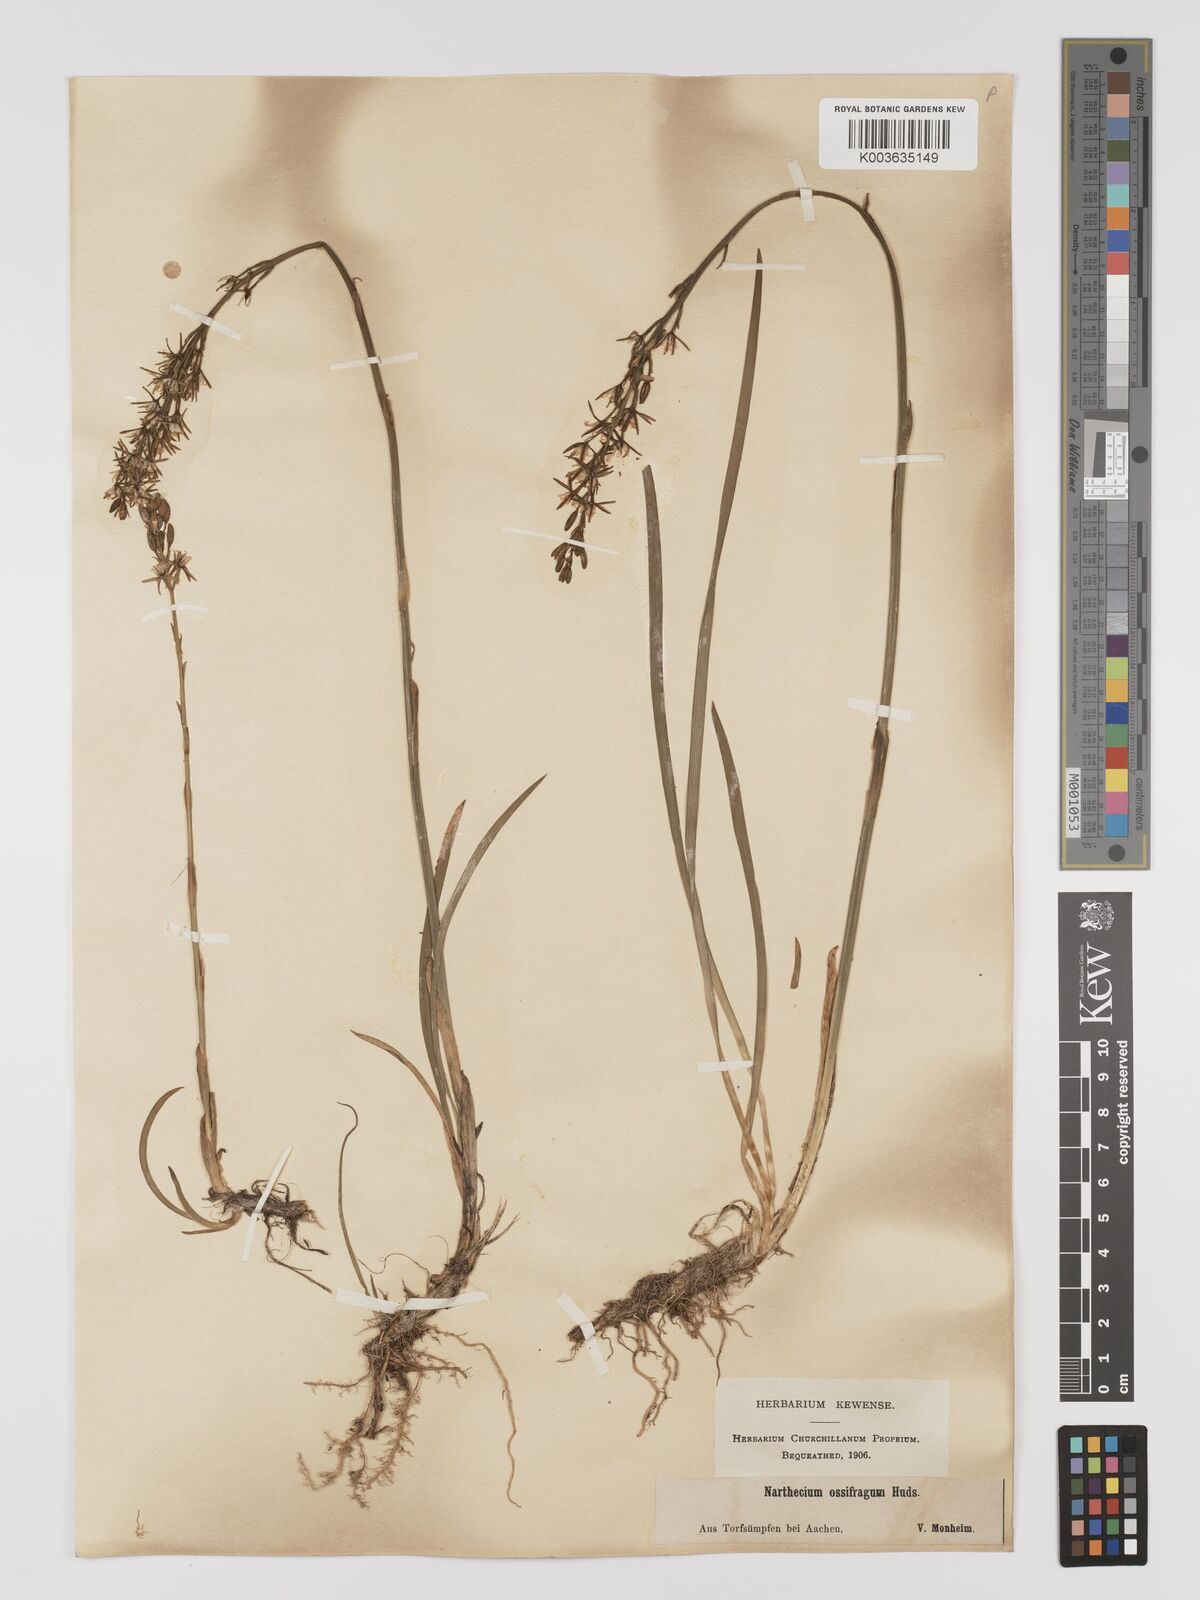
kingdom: Plantae
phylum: Tracheophyta
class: Liliopsida
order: Dioscoreales
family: Nartheciaceae
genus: Narthecium
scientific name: Narthecium ossifragum
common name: Bog asphodel
